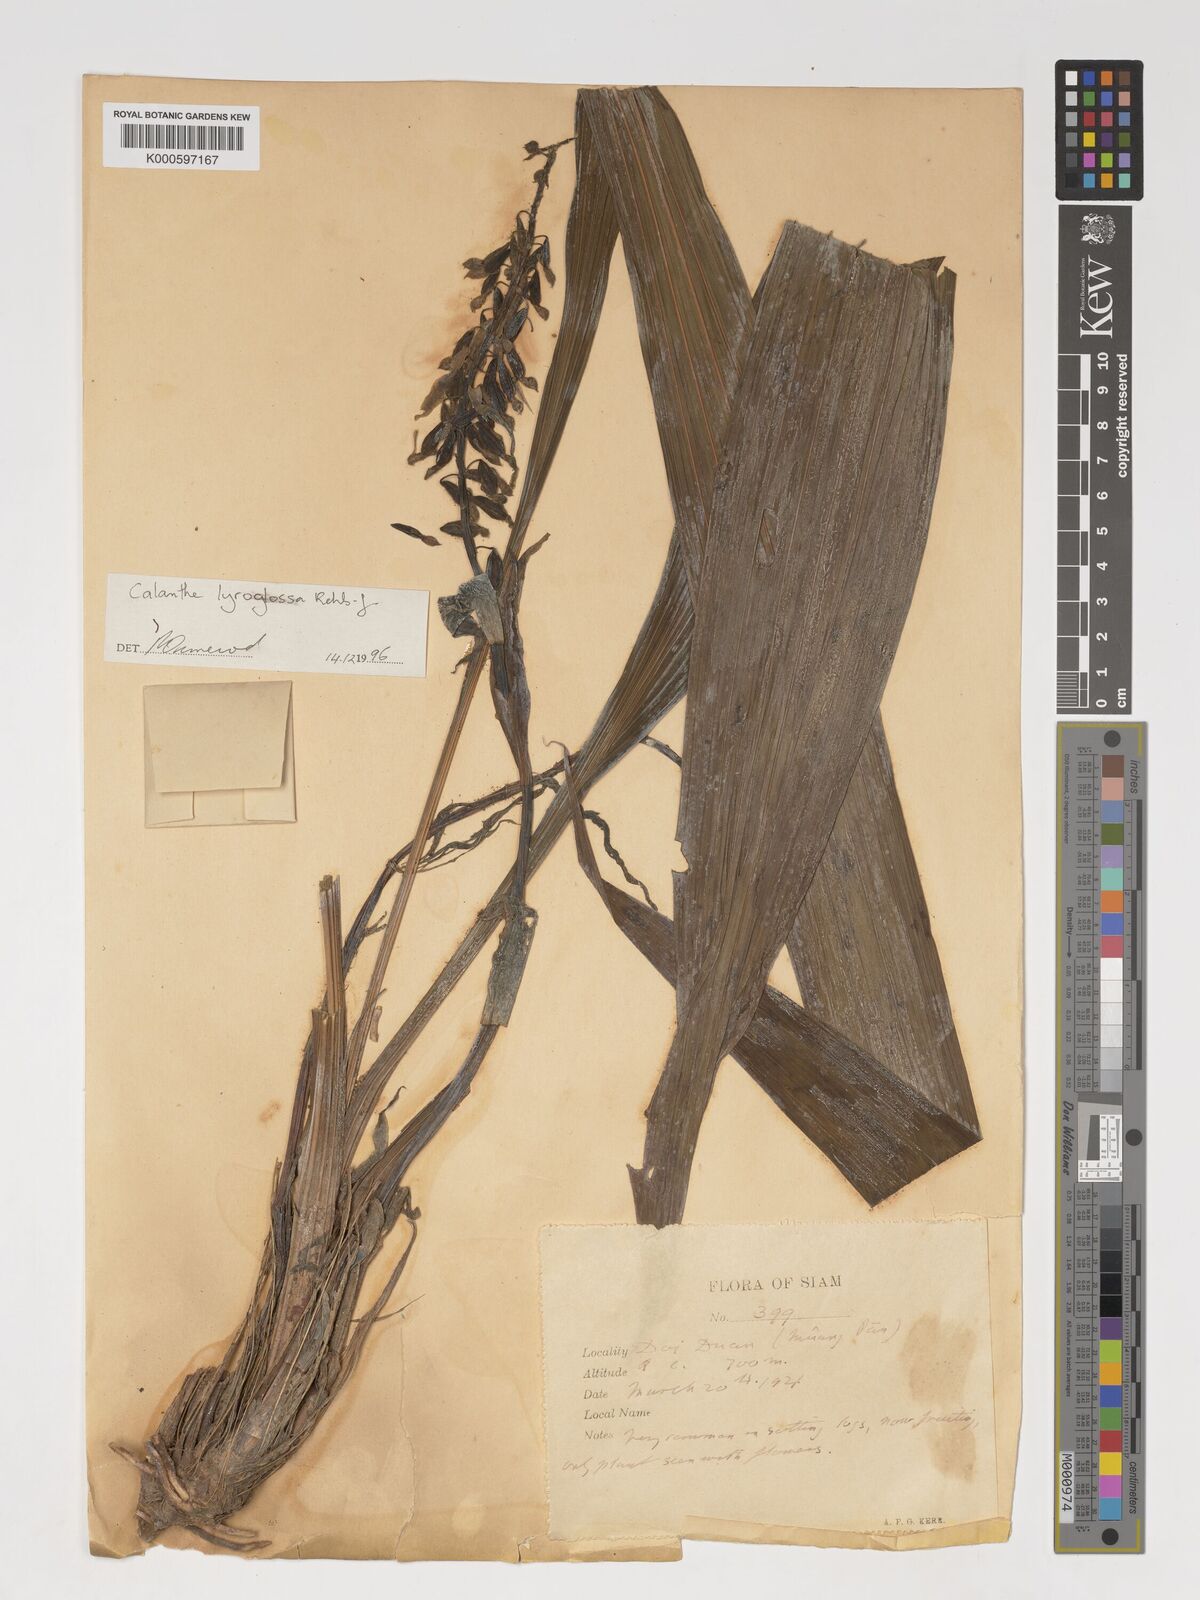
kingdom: Plantae
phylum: Tracheophyta
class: Liliopsida
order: Asparagales
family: Orchidaceae
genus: Calanthe
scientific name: Calanthe lyroglossa
